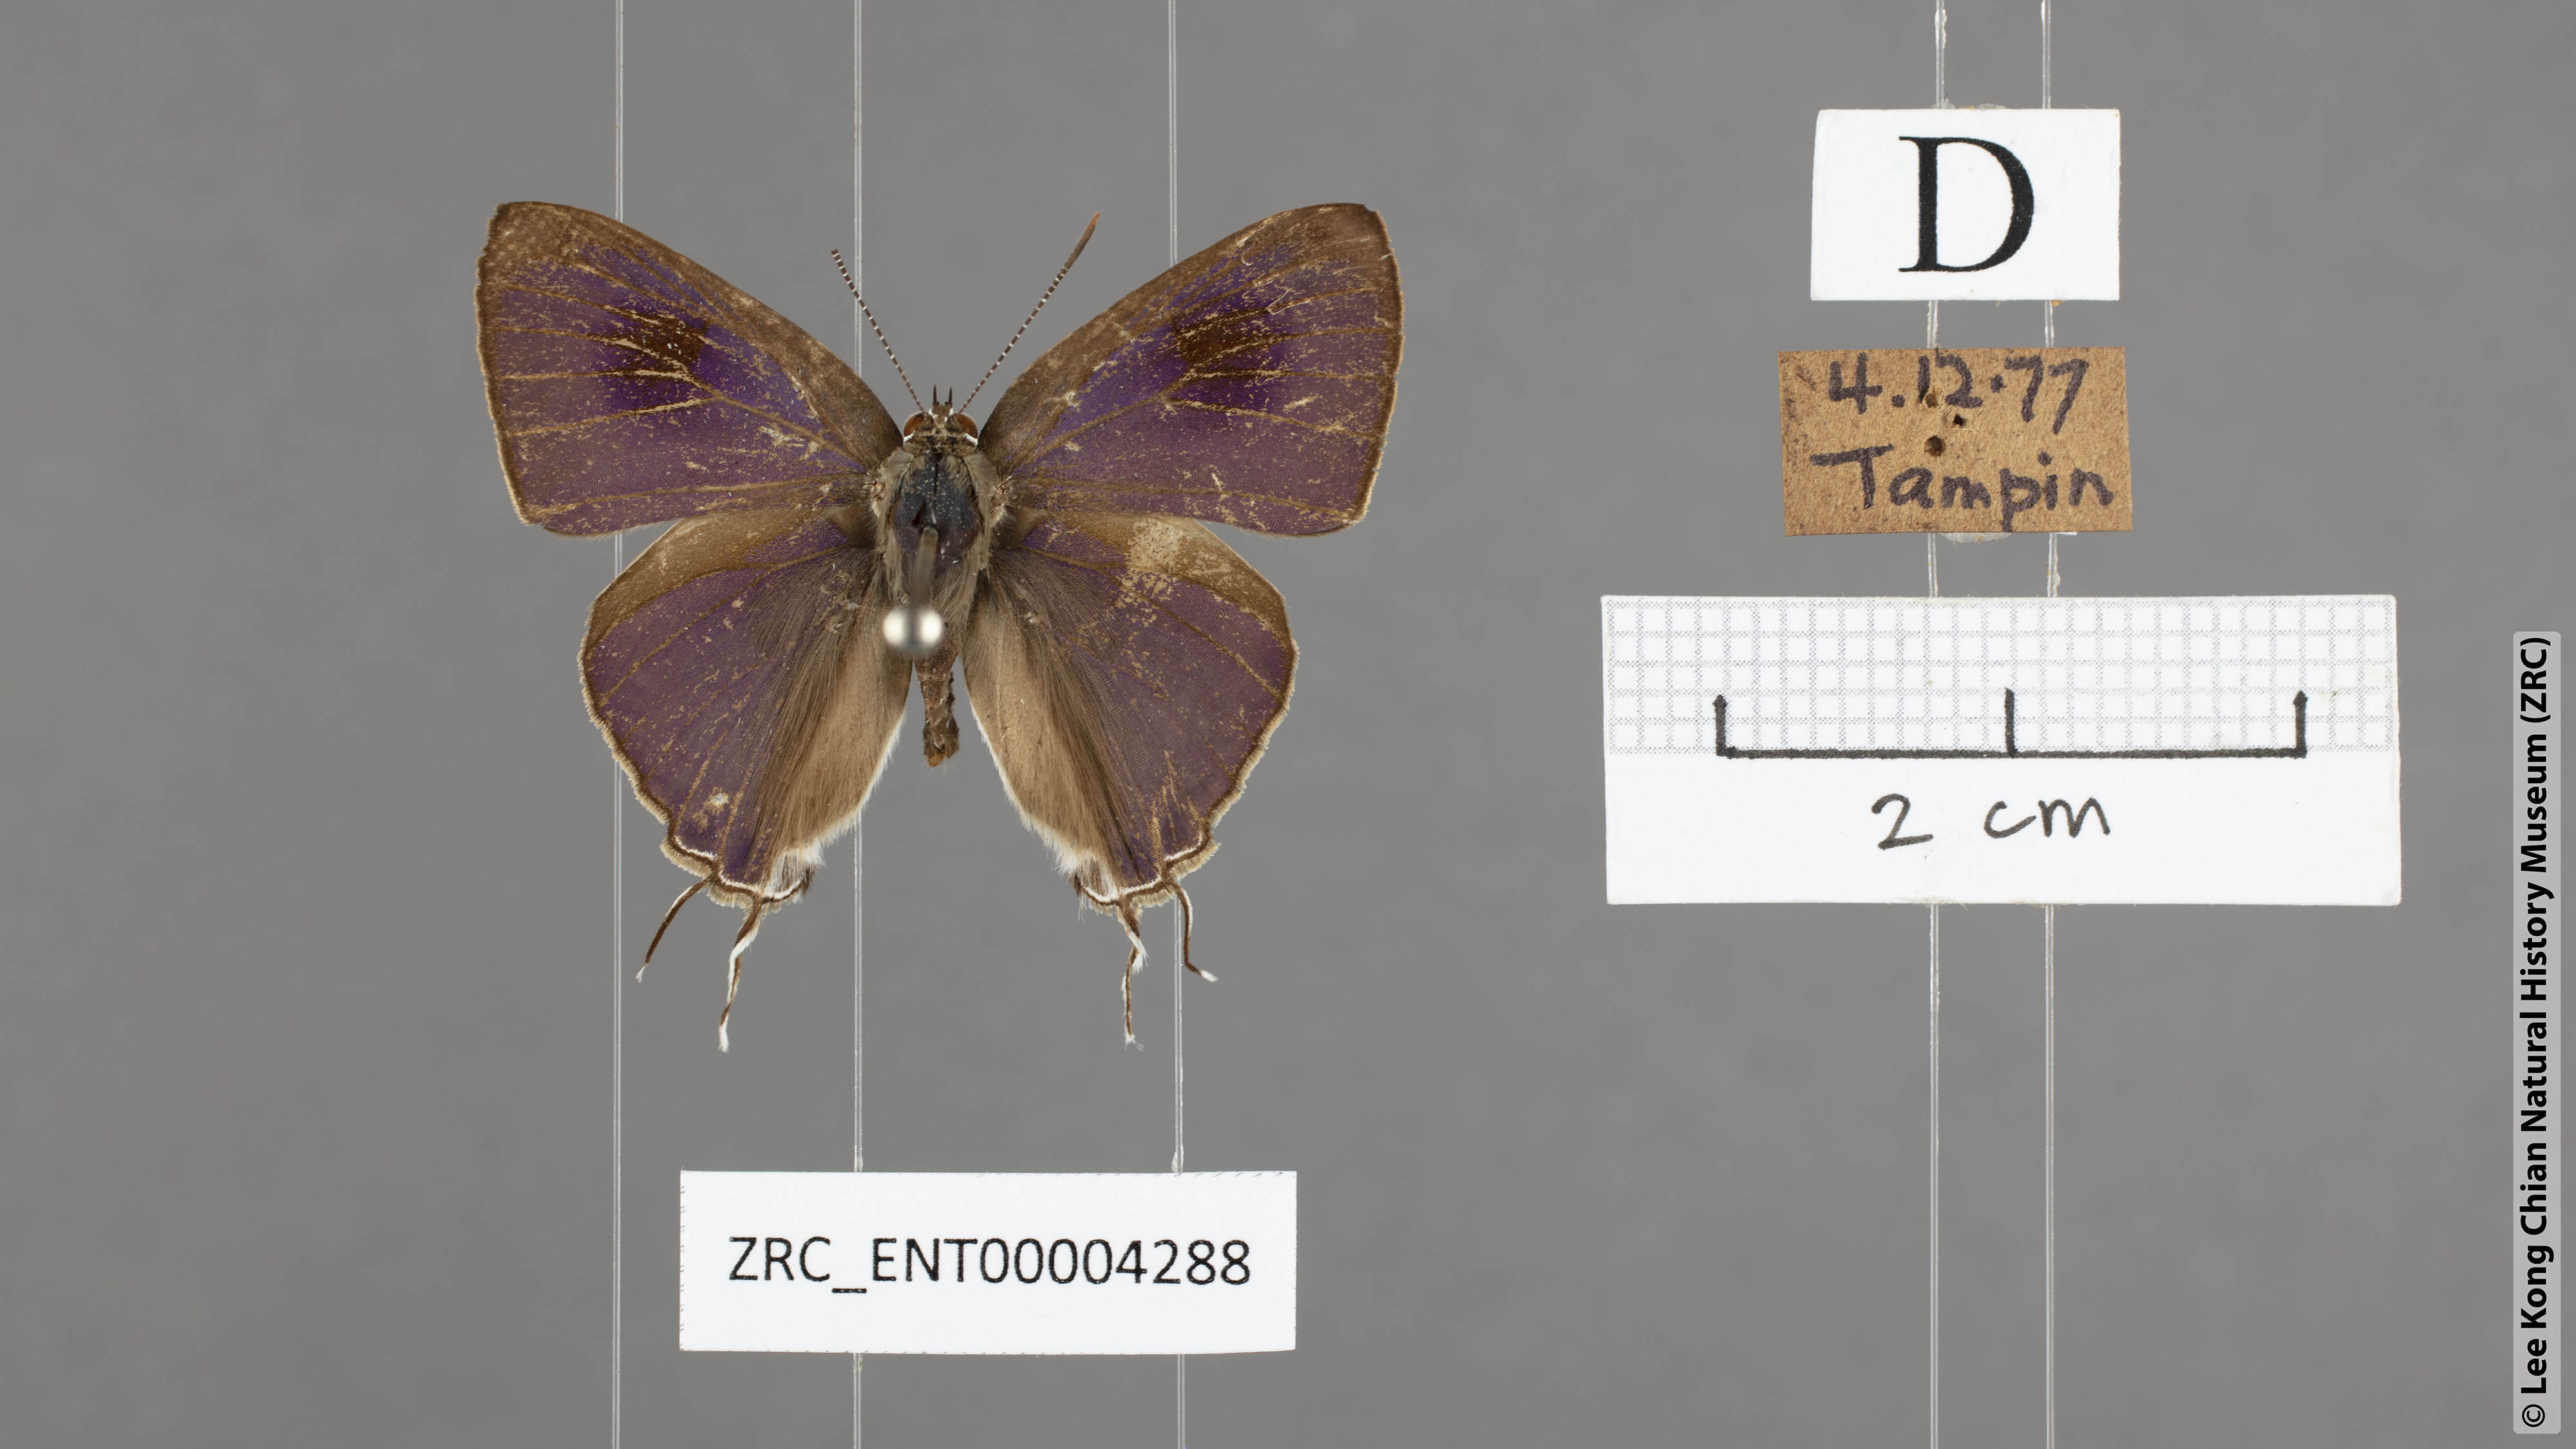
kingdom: Animalia
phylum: Arthropoda
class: Insecta
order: Lepidoptera
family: Lycaenidae
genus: Hypolycaena
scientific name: Hypolycaena erylus
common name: Common tit
